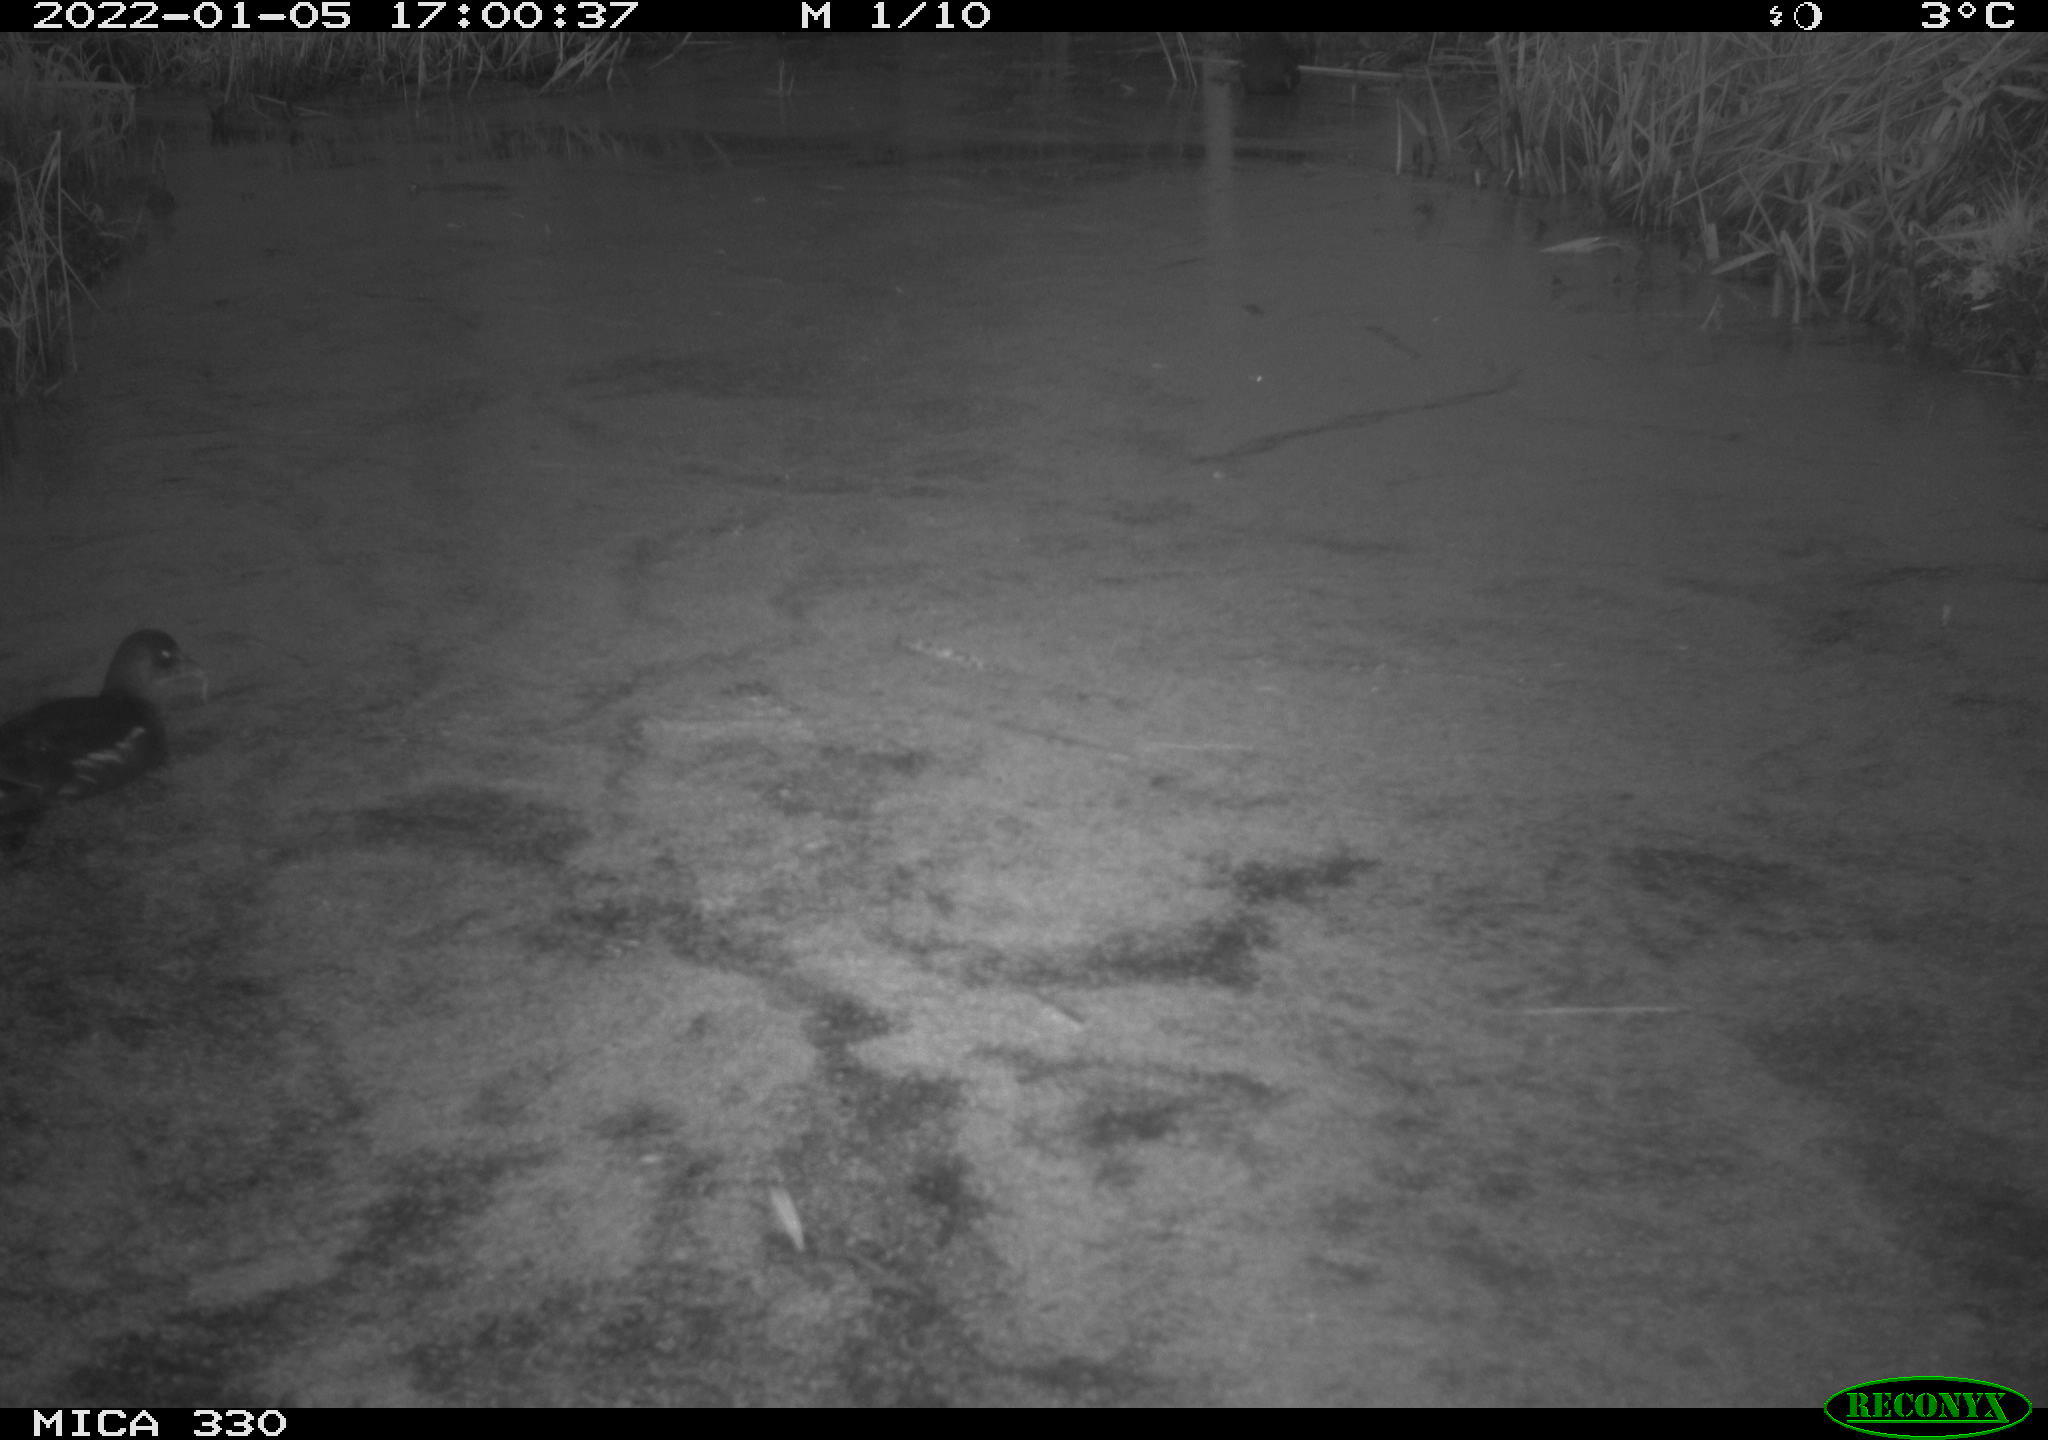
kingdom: Animalia
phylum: Chordata
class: Aves
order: Gruiformes
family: Rallidae
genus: Gallinula
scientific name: Gallinula chloropus
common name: Common moorhen
